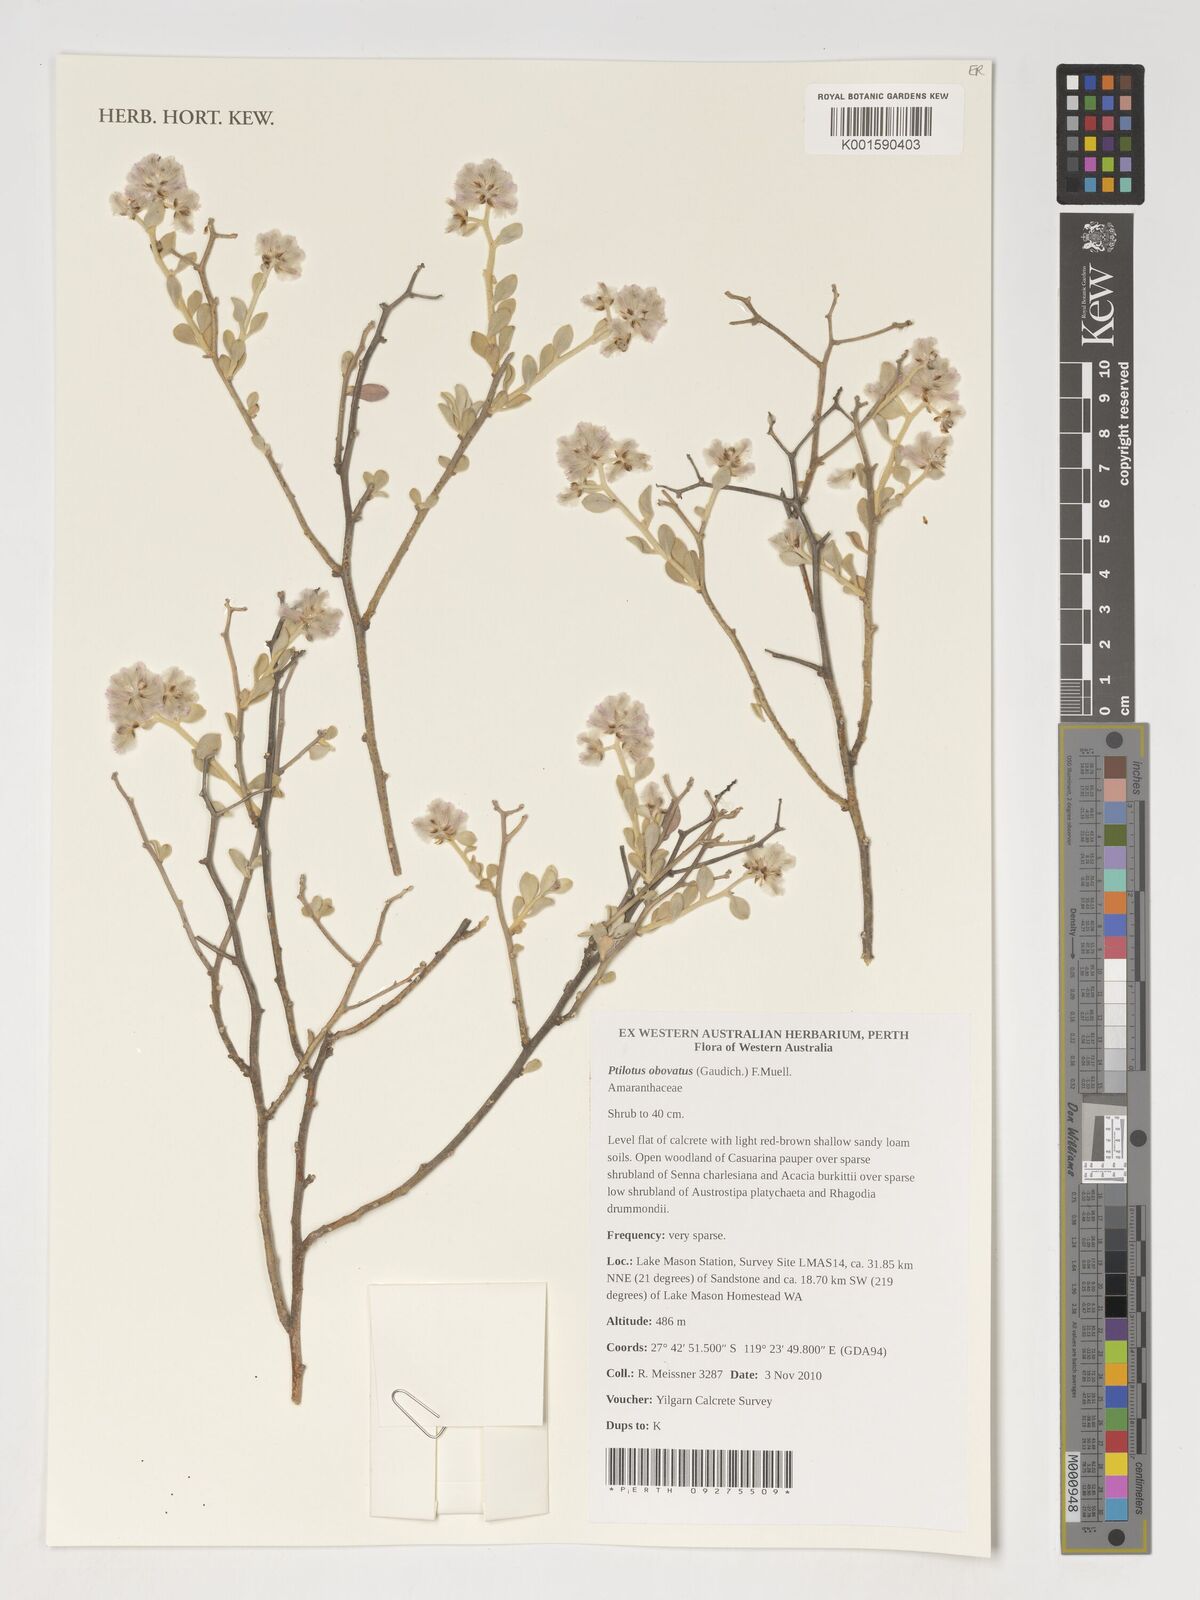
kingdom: Plantae
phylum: Tracheophyta
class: Magnoliopsida
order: Caryophyllales
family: Amaranthaceae
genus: Ptilotus
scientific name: Ptilotus obovatus
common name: Cottonbush
